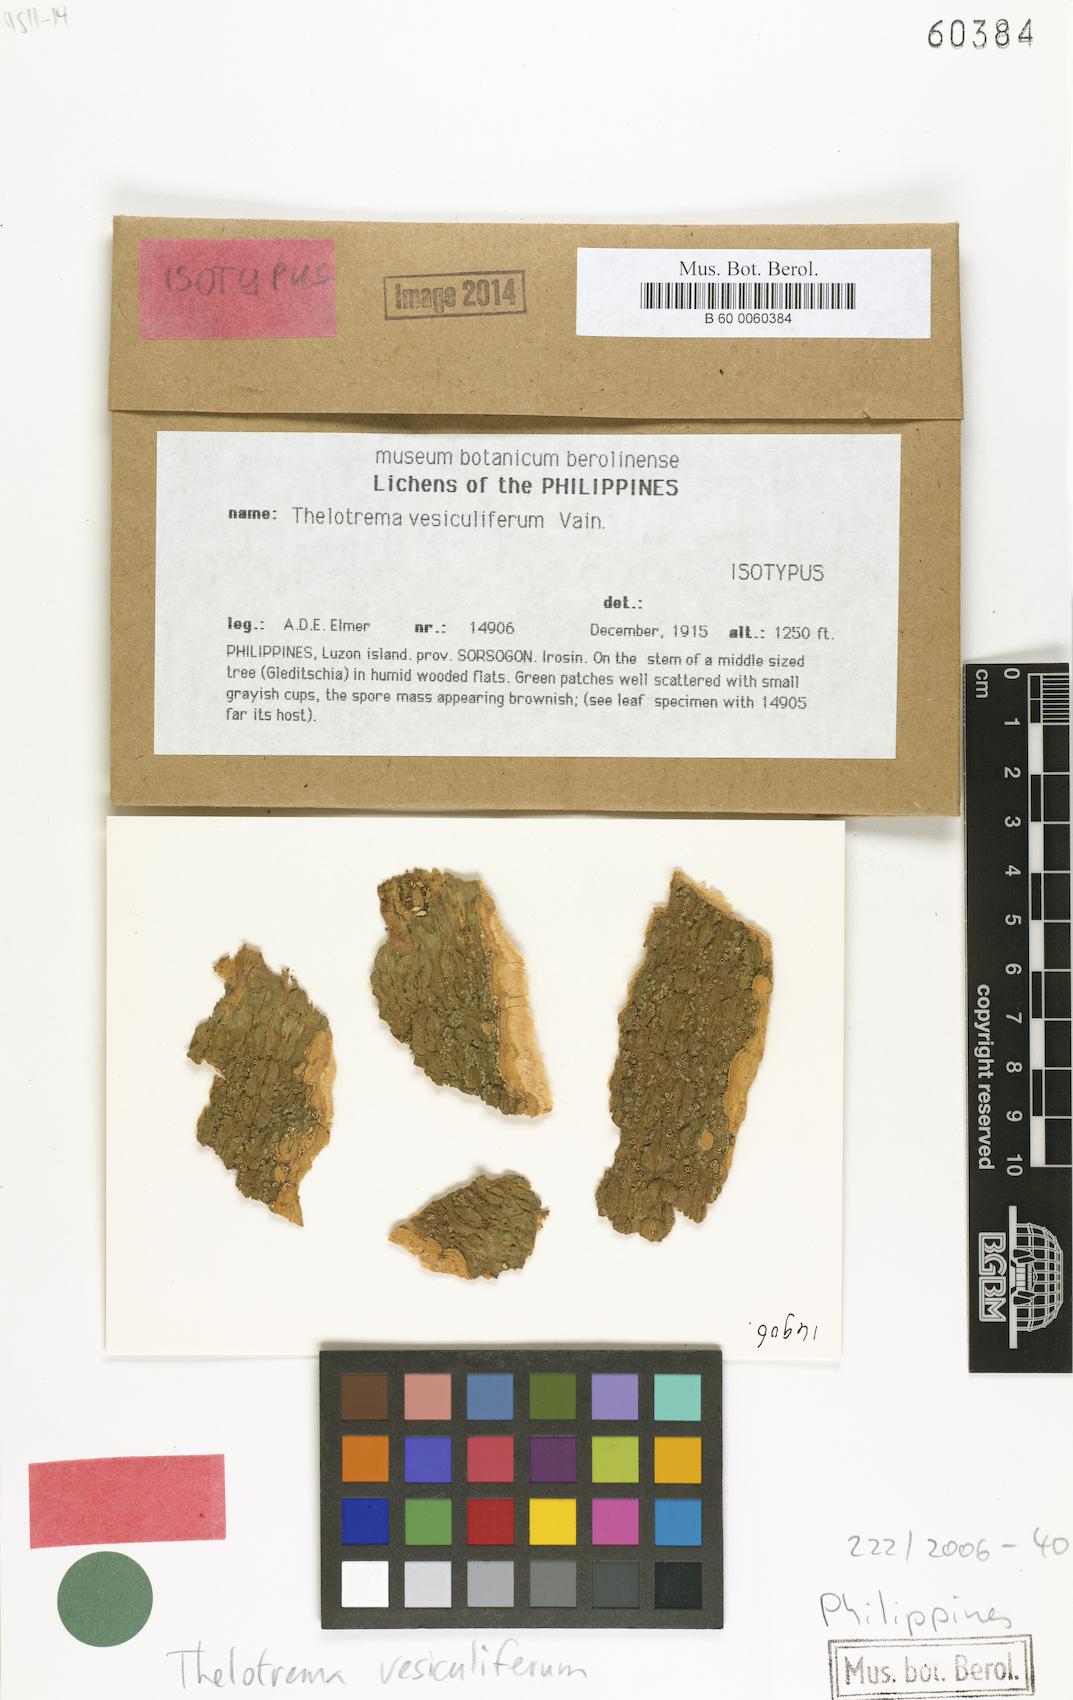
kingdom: Fungi
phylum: Ascomycota
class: Lecanoromycetes
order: Ostropales
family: Graphidaceae
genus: Thelotrema
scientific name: Thelotrema
